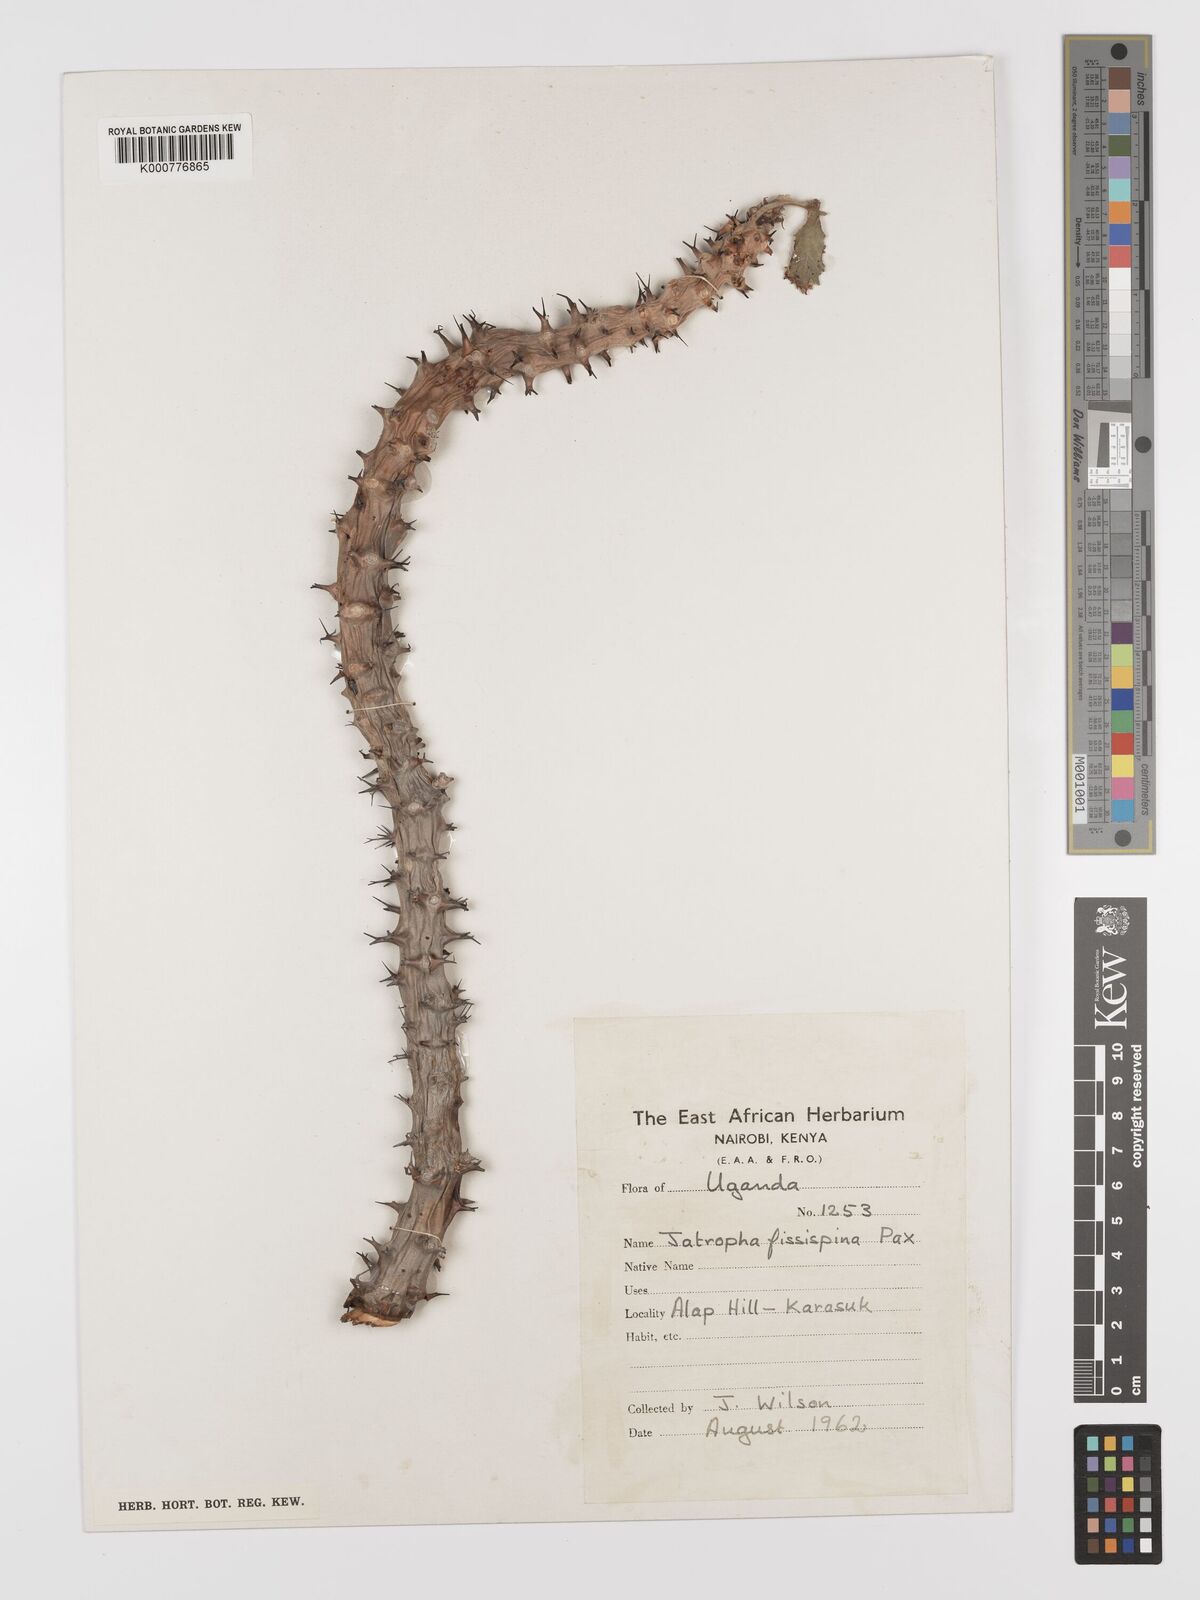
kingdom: Plantae
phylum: Tracheophyta
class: Magnoliopsida
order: Malpighiales
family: Euphorbiaceae
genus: Jatropha
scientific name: Jatropha ellenbeckii
